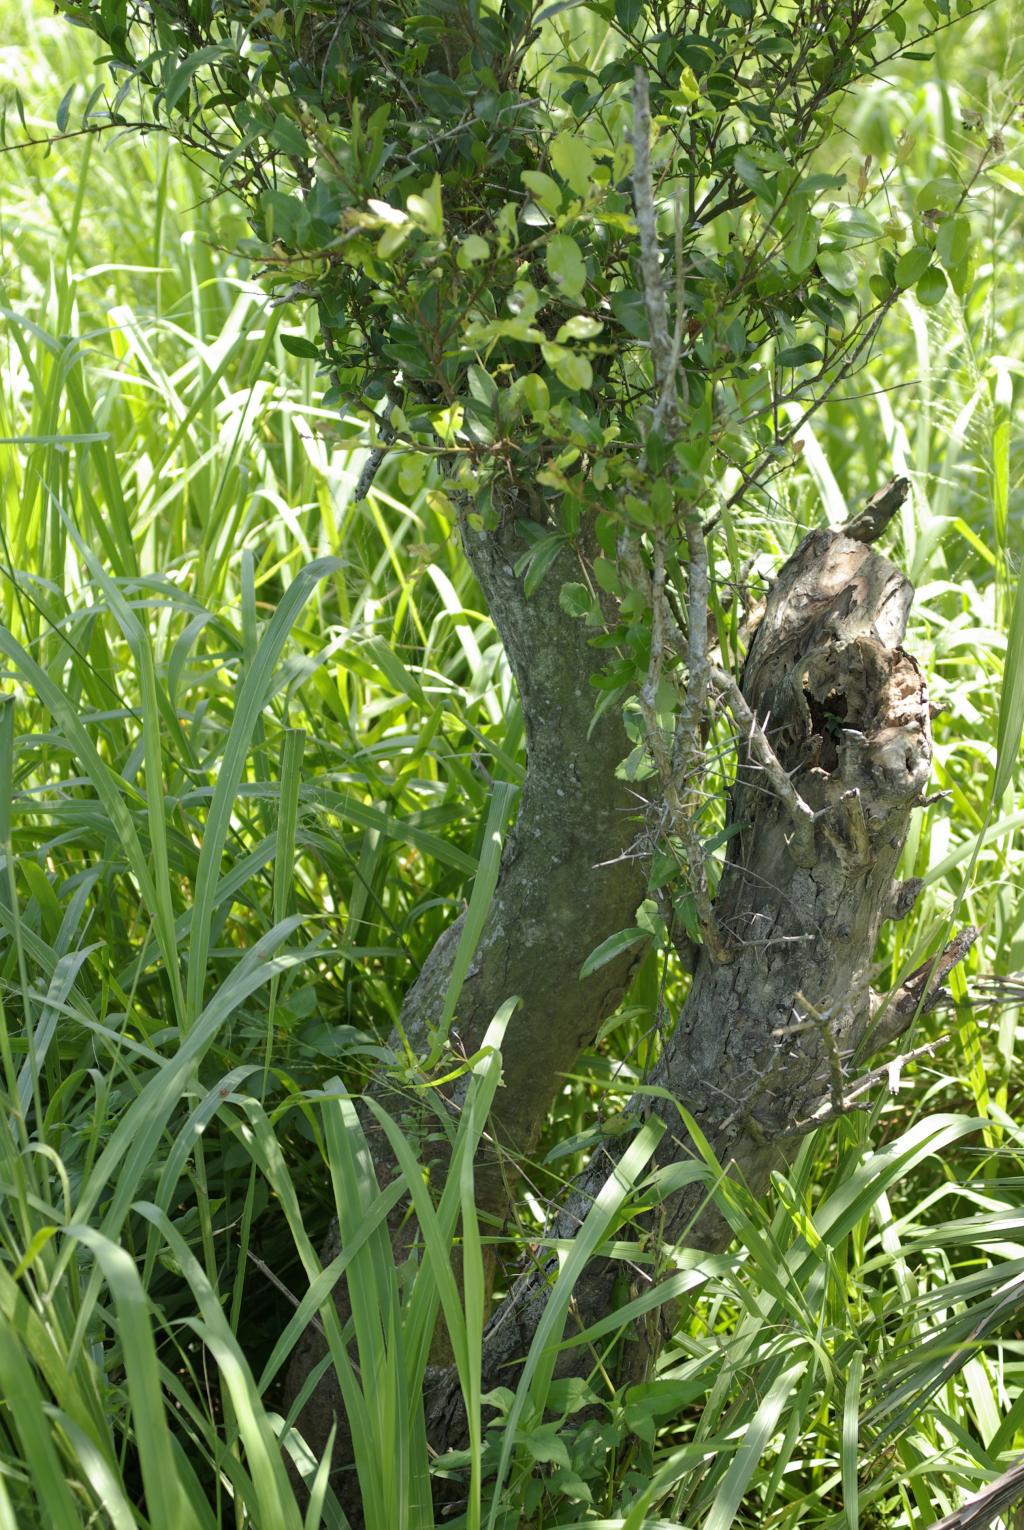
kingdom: Plantae
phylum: Tracheophyta
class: Magnoliopsida
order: Malpighiales
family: Salicaceae
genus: Scolopia
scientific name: Scolopia oldhamii
